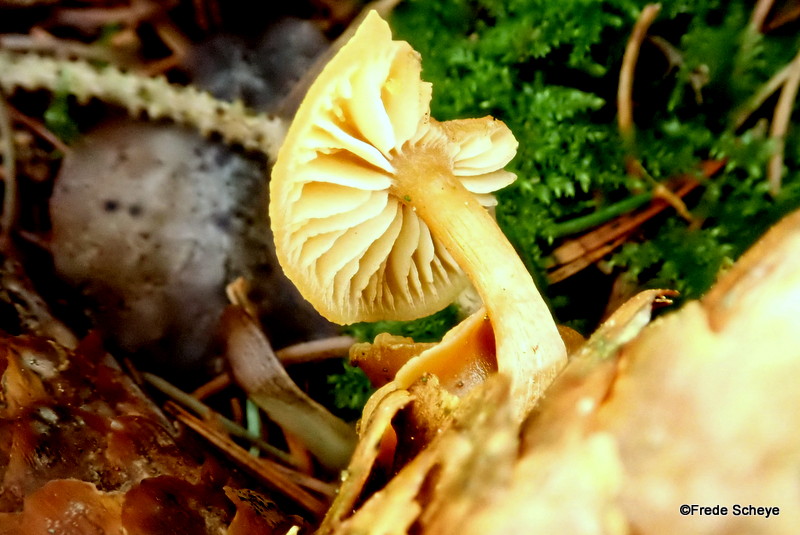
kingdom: Fungi
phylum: Basidiomycota
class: Agaricomycetes
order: Agaricales
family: Hymenogastraceae
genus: Gymnopilus
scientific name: Gymnopilus
